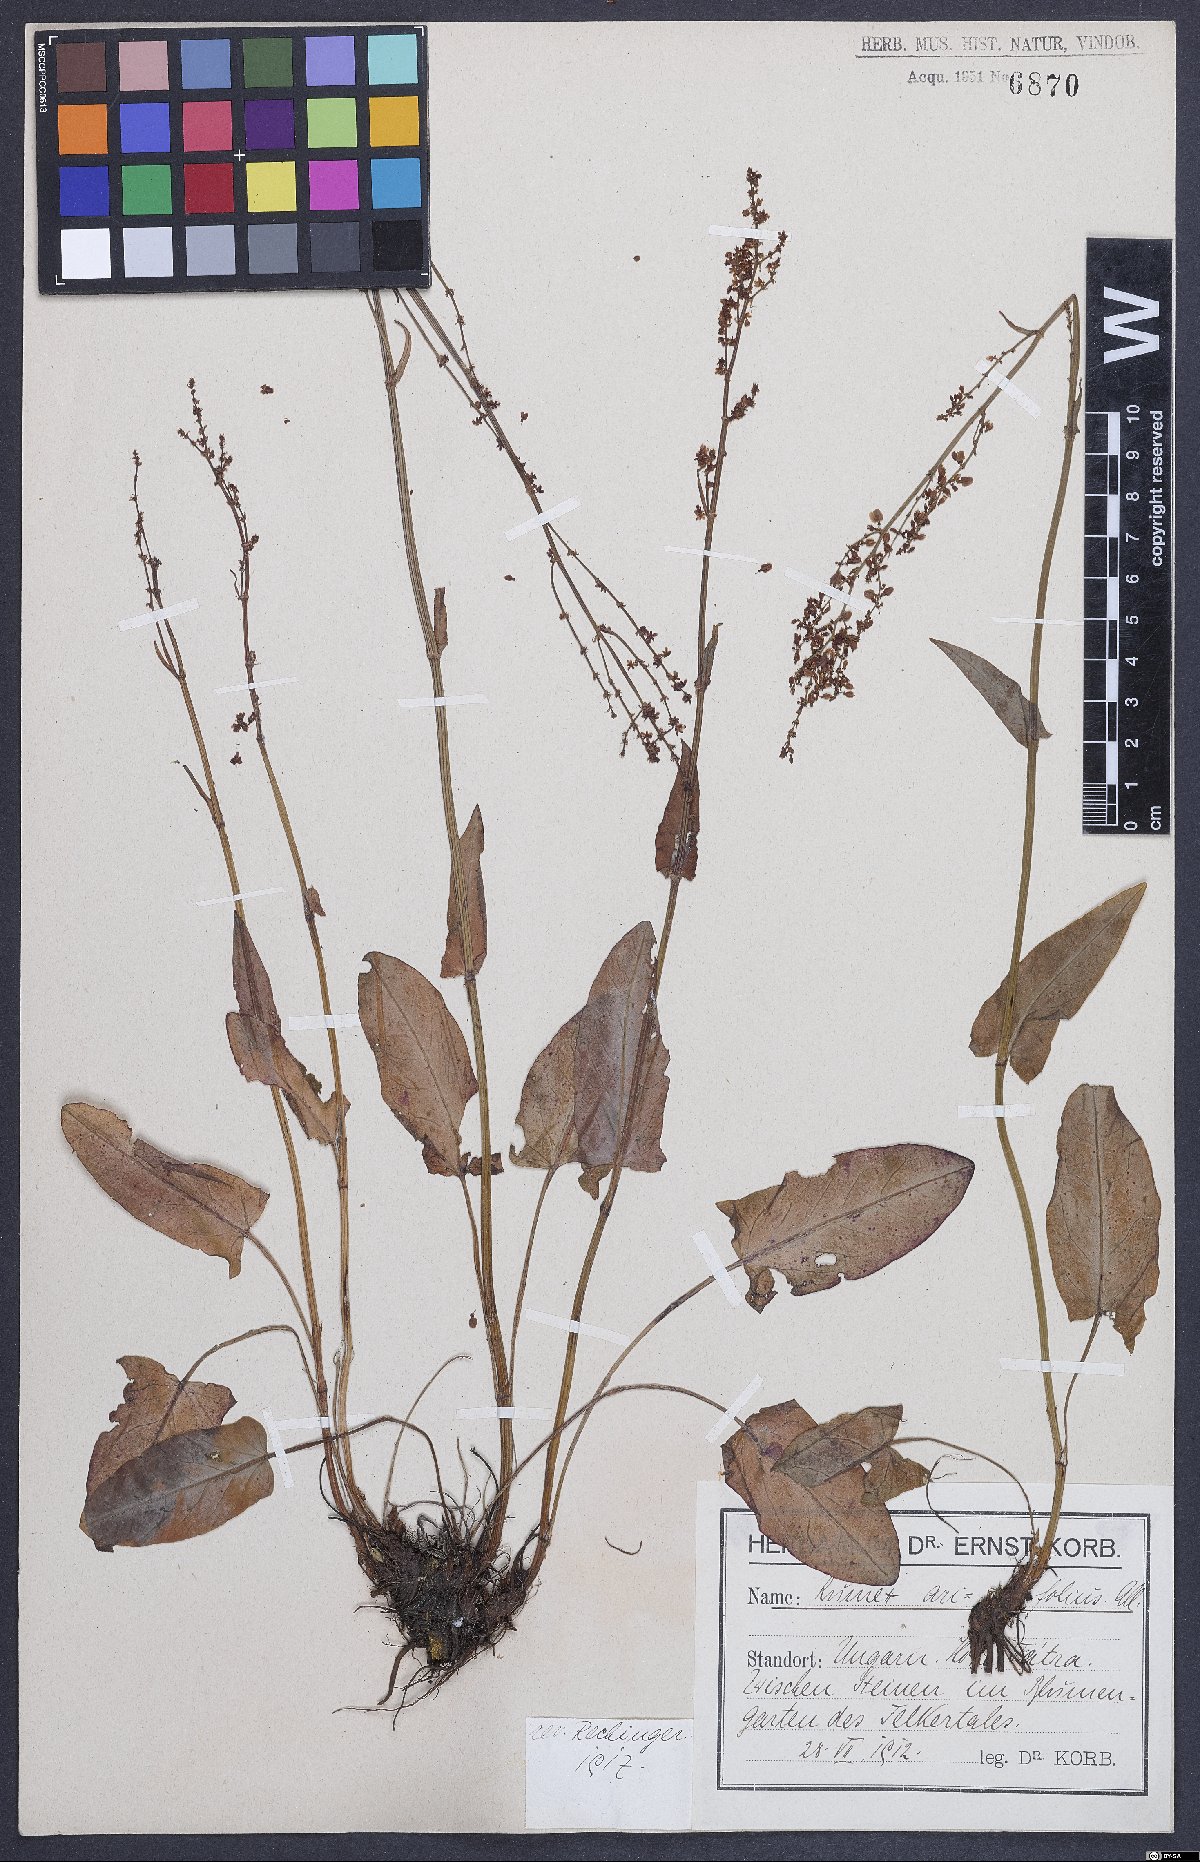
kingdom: Plantae
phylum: Tracheophyta
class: Magnoliopsida
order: Caryophyllales
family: Polygonaceae
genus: Rumex
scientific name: Rumex arifolius
